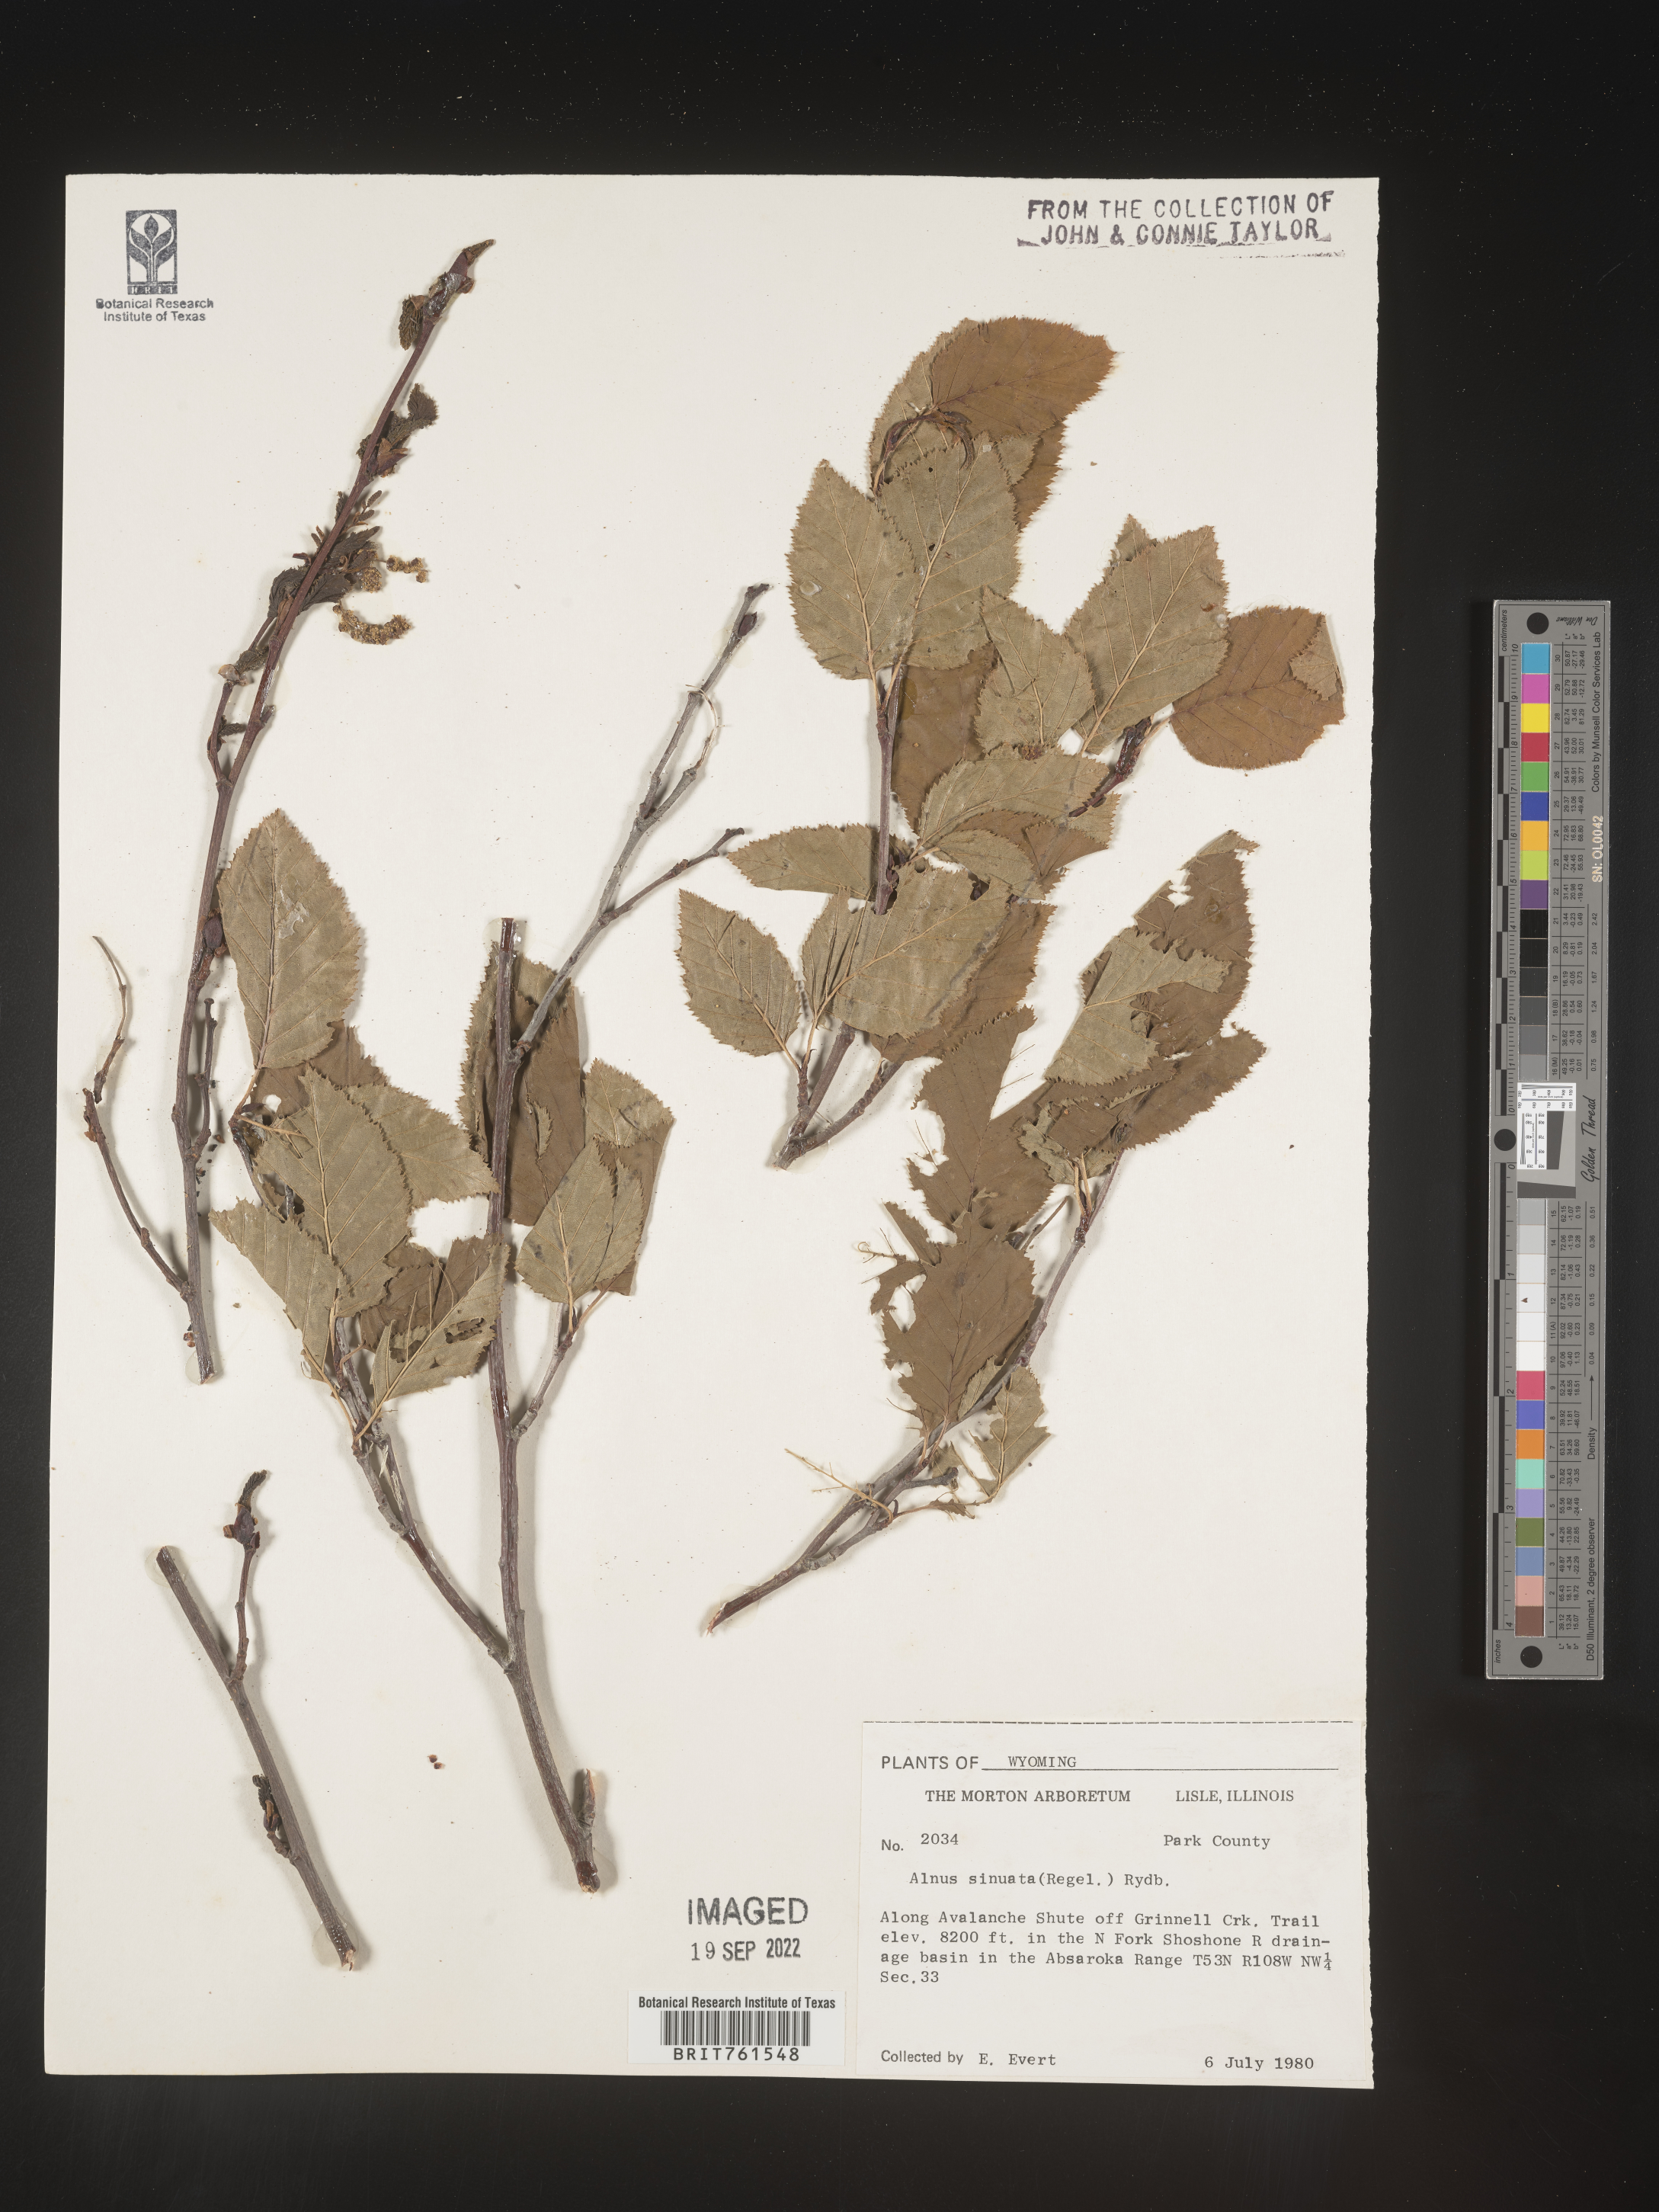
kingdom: Plantae
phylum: Tracheophyta
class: Magnoliopsida
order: Fagales
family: Betulaceae
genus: Alnus
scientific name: Alnus alnobetula
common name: Green alder
